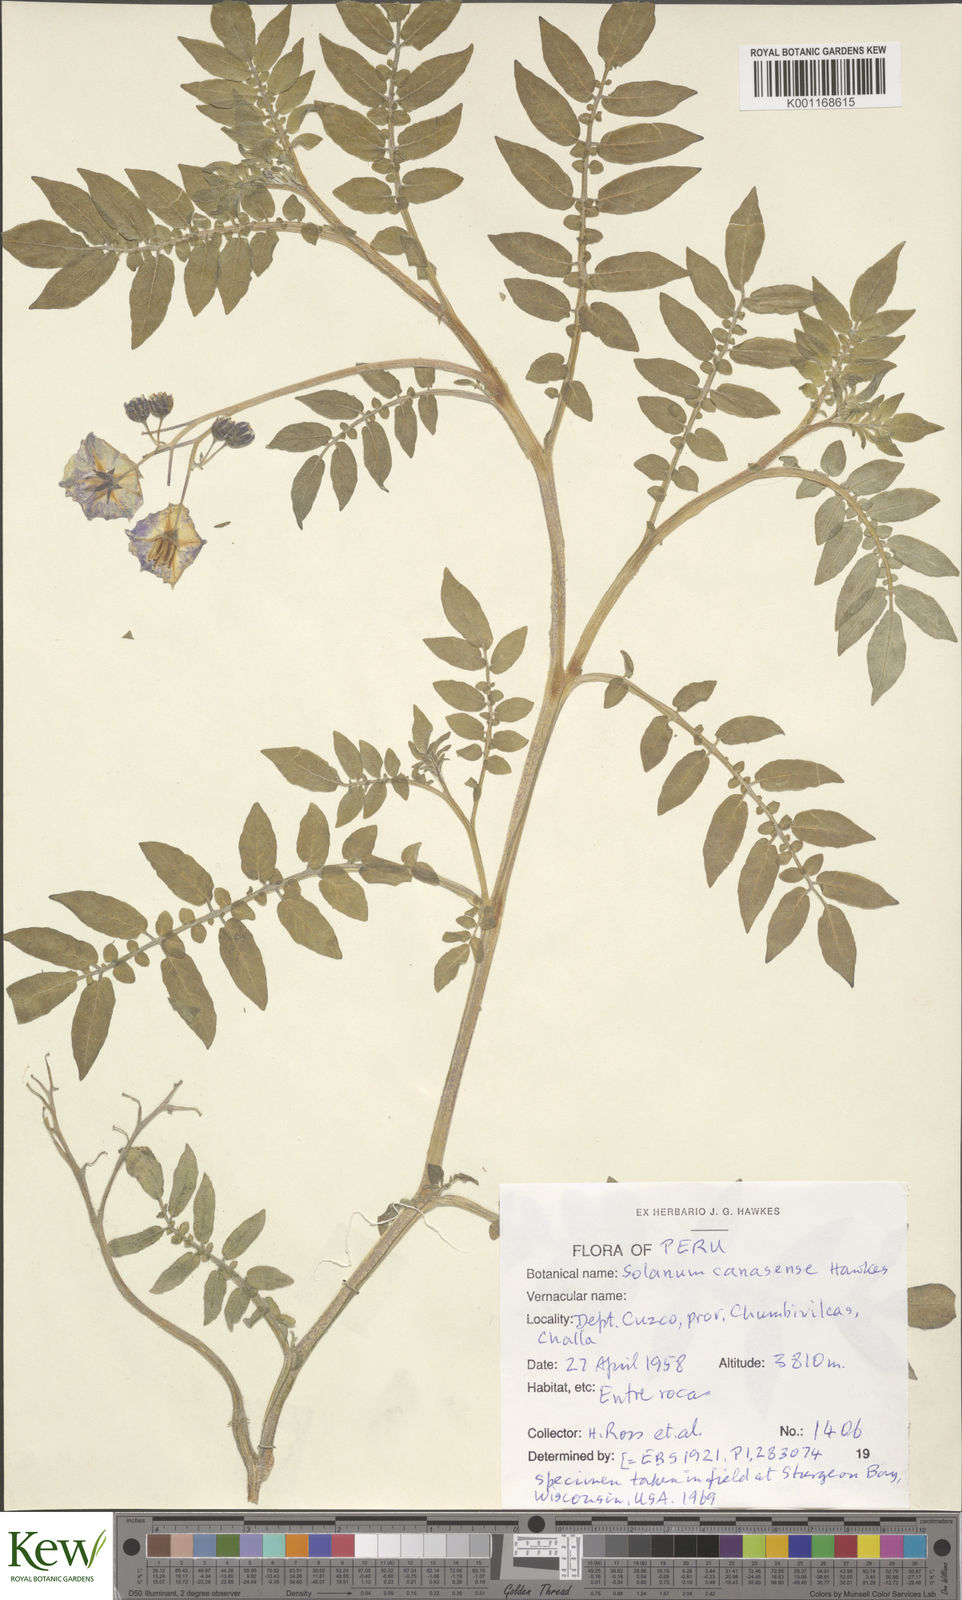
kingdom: Plantae
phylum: Tracheophyta
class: Magnoliopsida
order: Solanales
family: Solanaceae
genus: Solanum
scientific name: Solanum candolleanum
